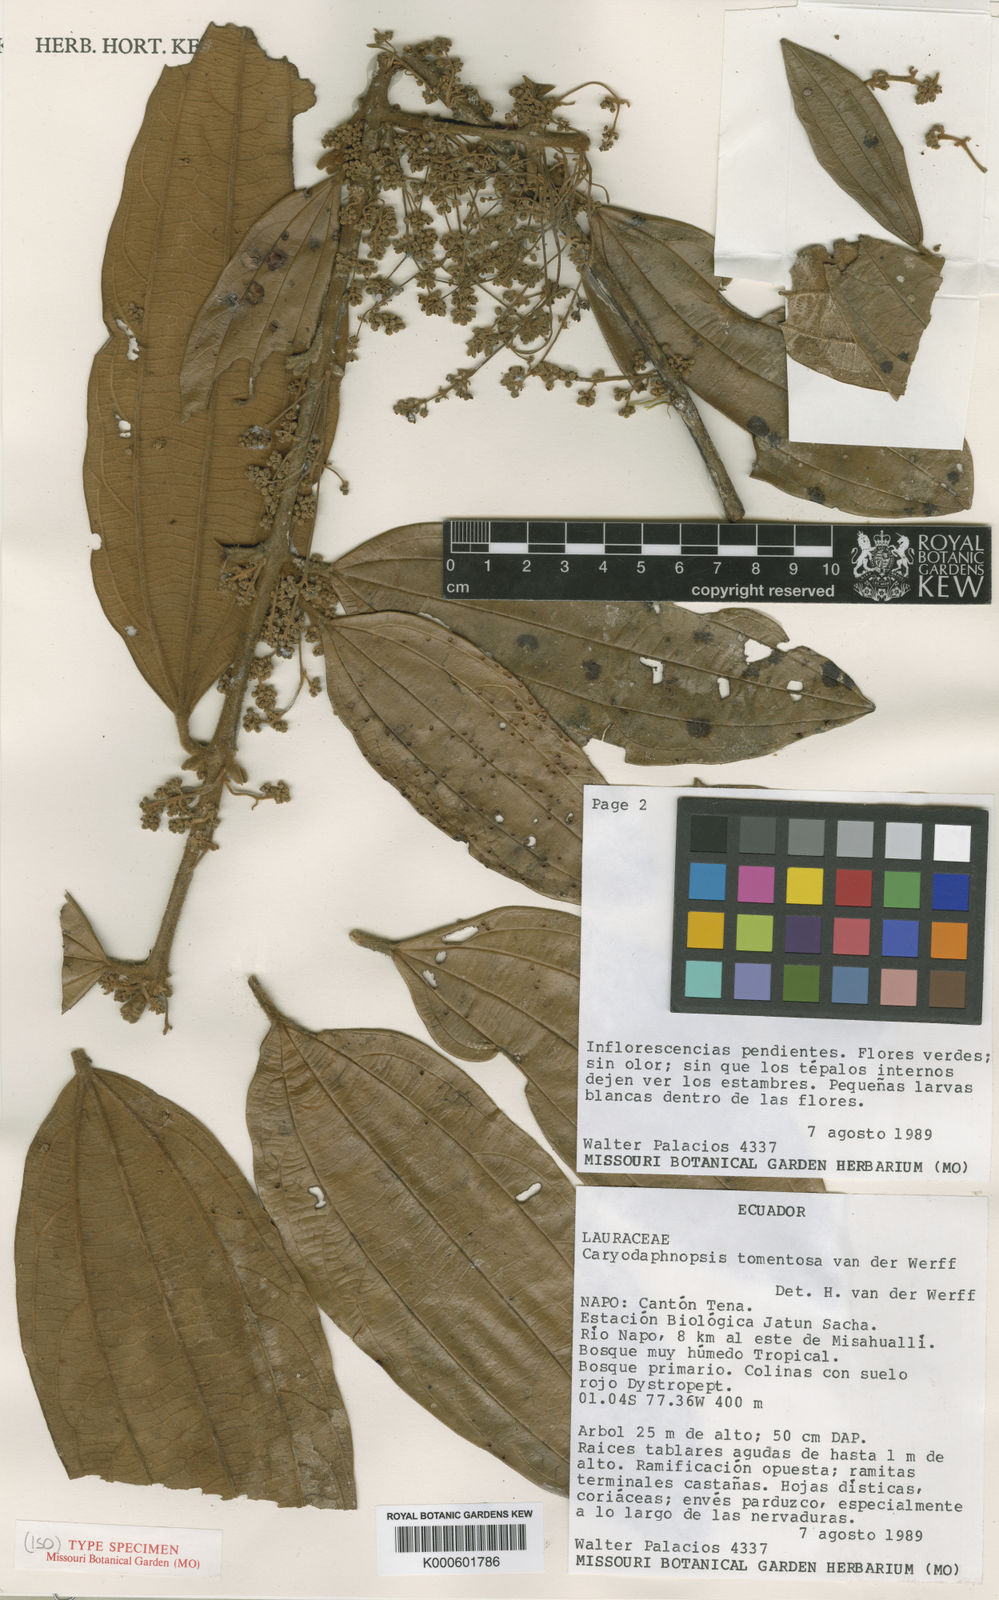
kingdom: Plantae
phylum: Tracheophyta
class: Magnoliopsida
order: Laurales
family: Lauraceae
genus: Caryodaphnopsis
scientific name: Caryodaphnopsis tomentosa
